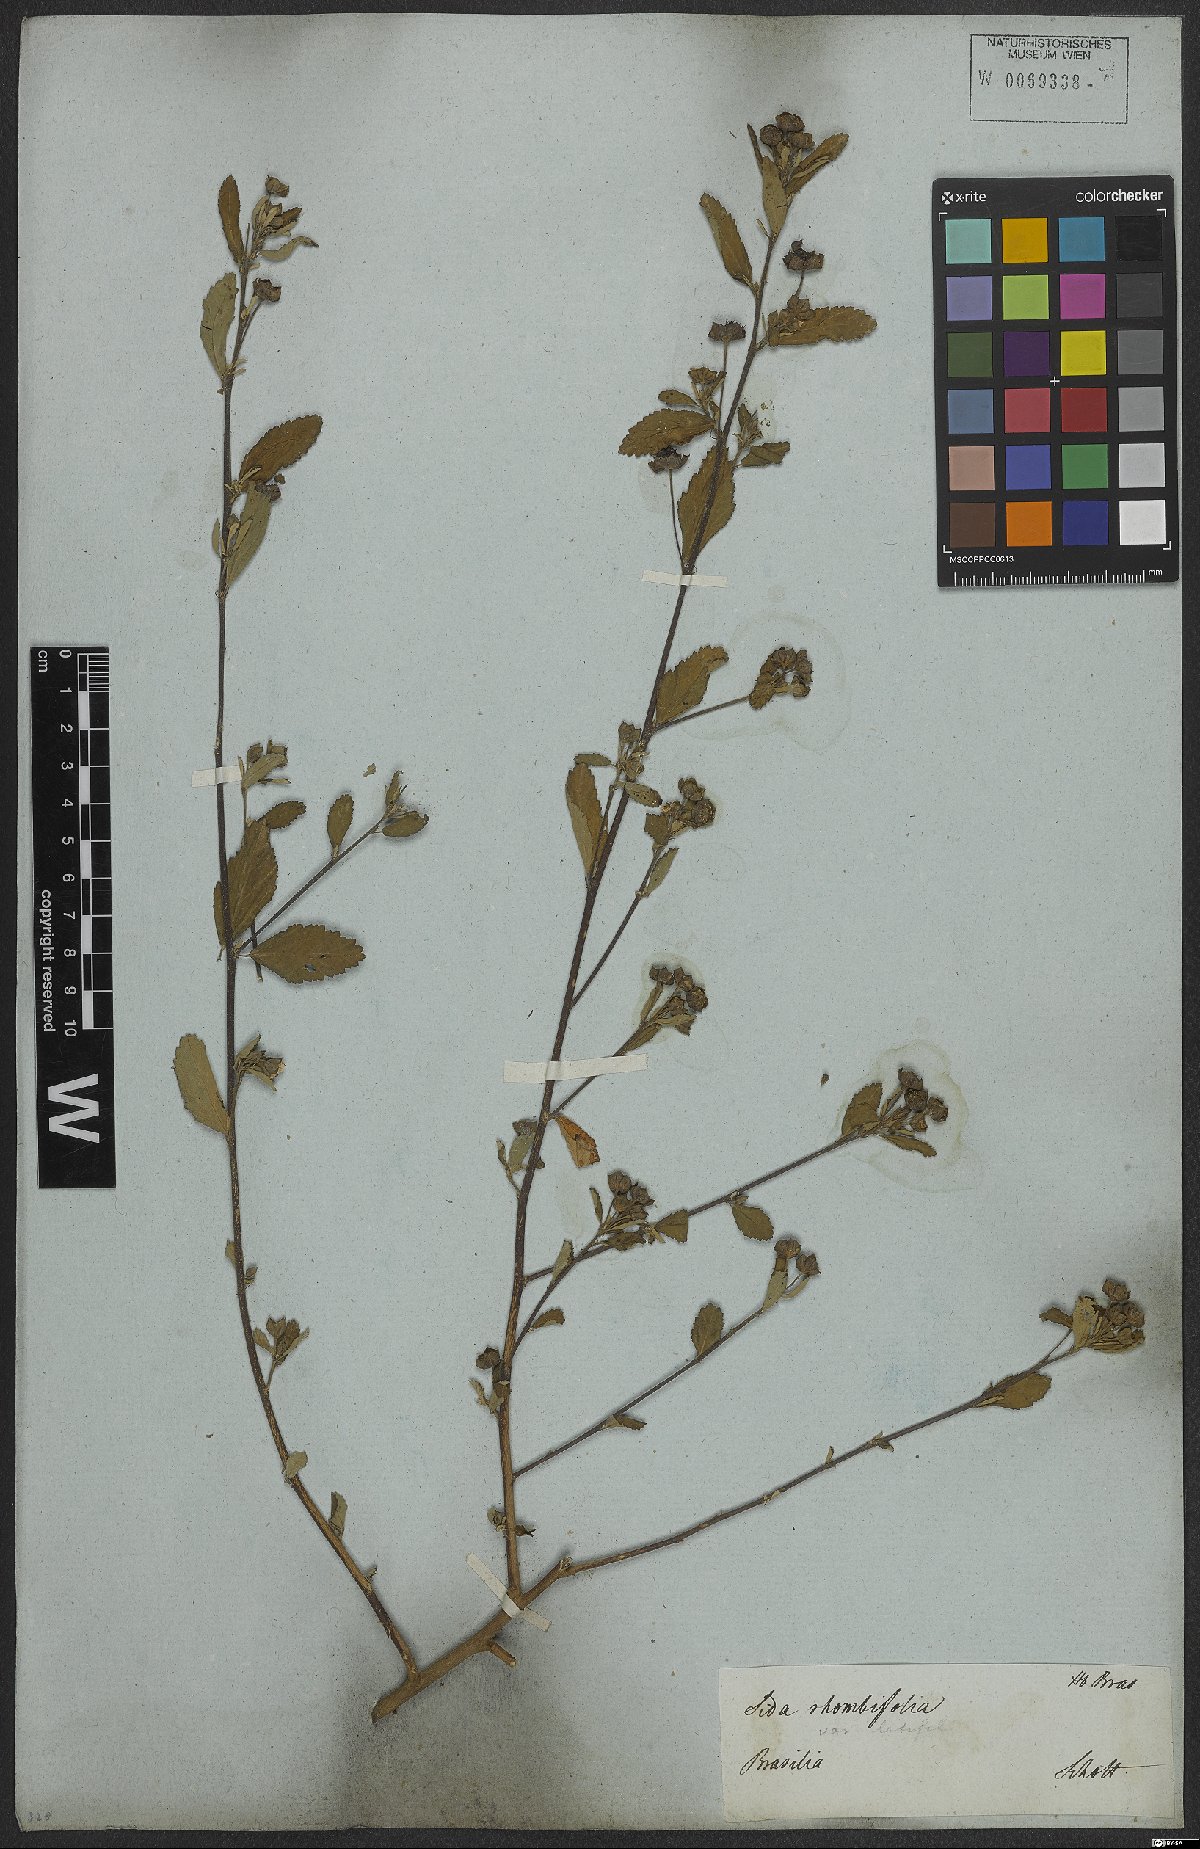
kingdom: Plantae
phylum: Tracheophyta
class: Magnoliopsida
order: Malvales
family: Malvaceae
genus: Sida
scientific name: Sida rhombifolia
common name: Queensland-hemp
